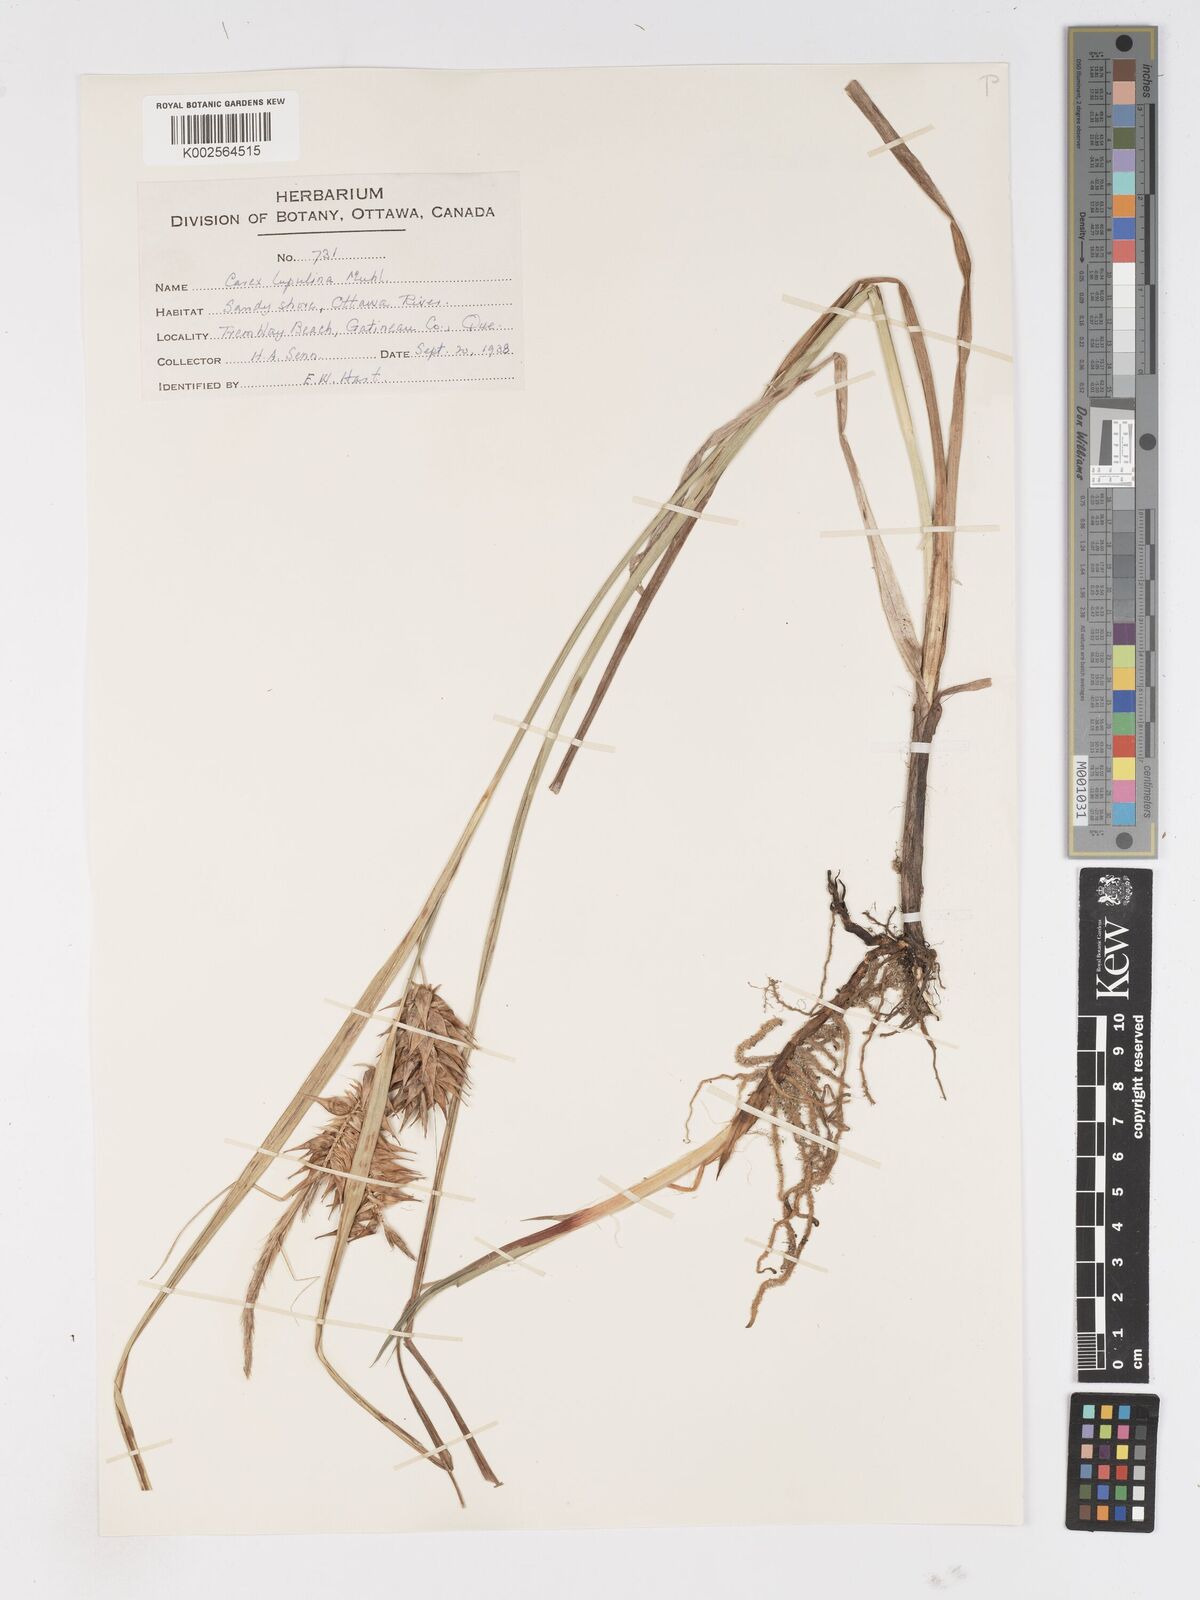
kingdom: Plantae
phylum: Tracheophyta
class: Liliopsida
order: Poales
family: Cyperaceae
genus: Carex
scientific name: Carex lupulina
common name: Hop sedge
